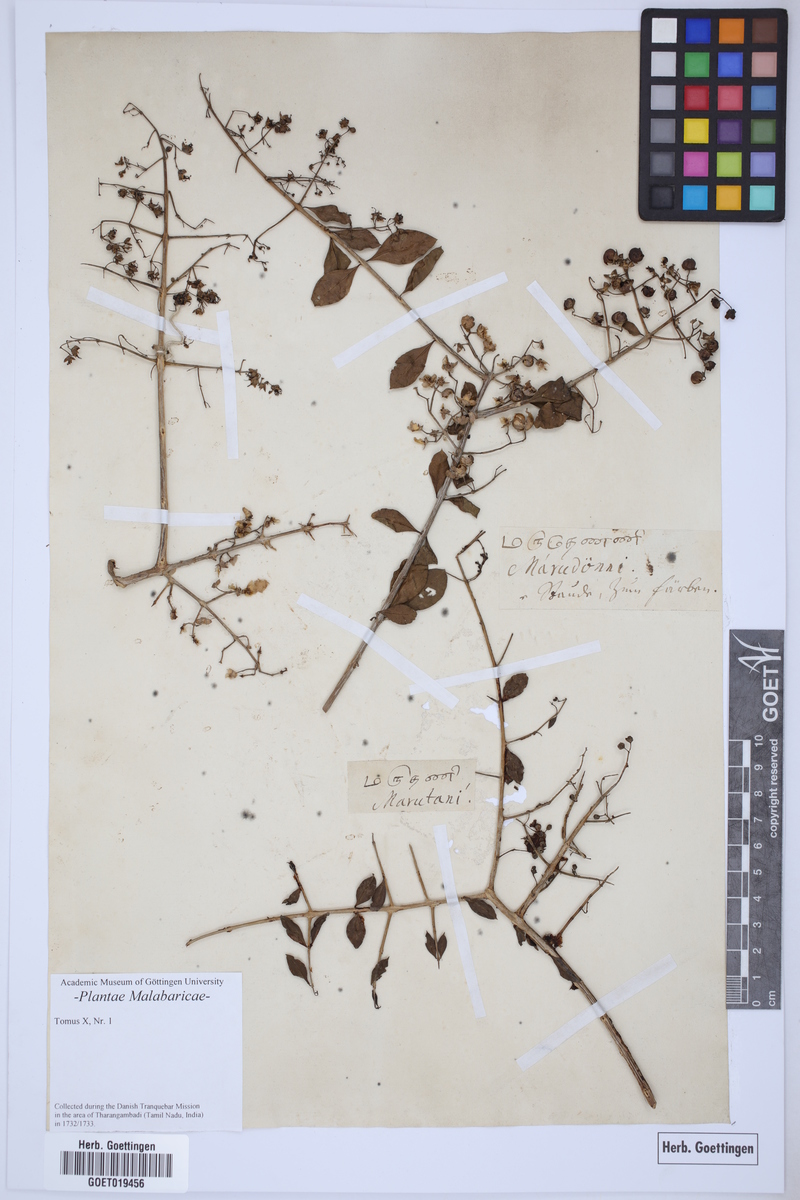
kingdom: Plantae
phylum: Tracheophyta
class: Magnoliopsida
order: Myrtales
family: Lythraceae
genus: Lawsonia
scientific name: Lawsonia inermis
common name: Henna
